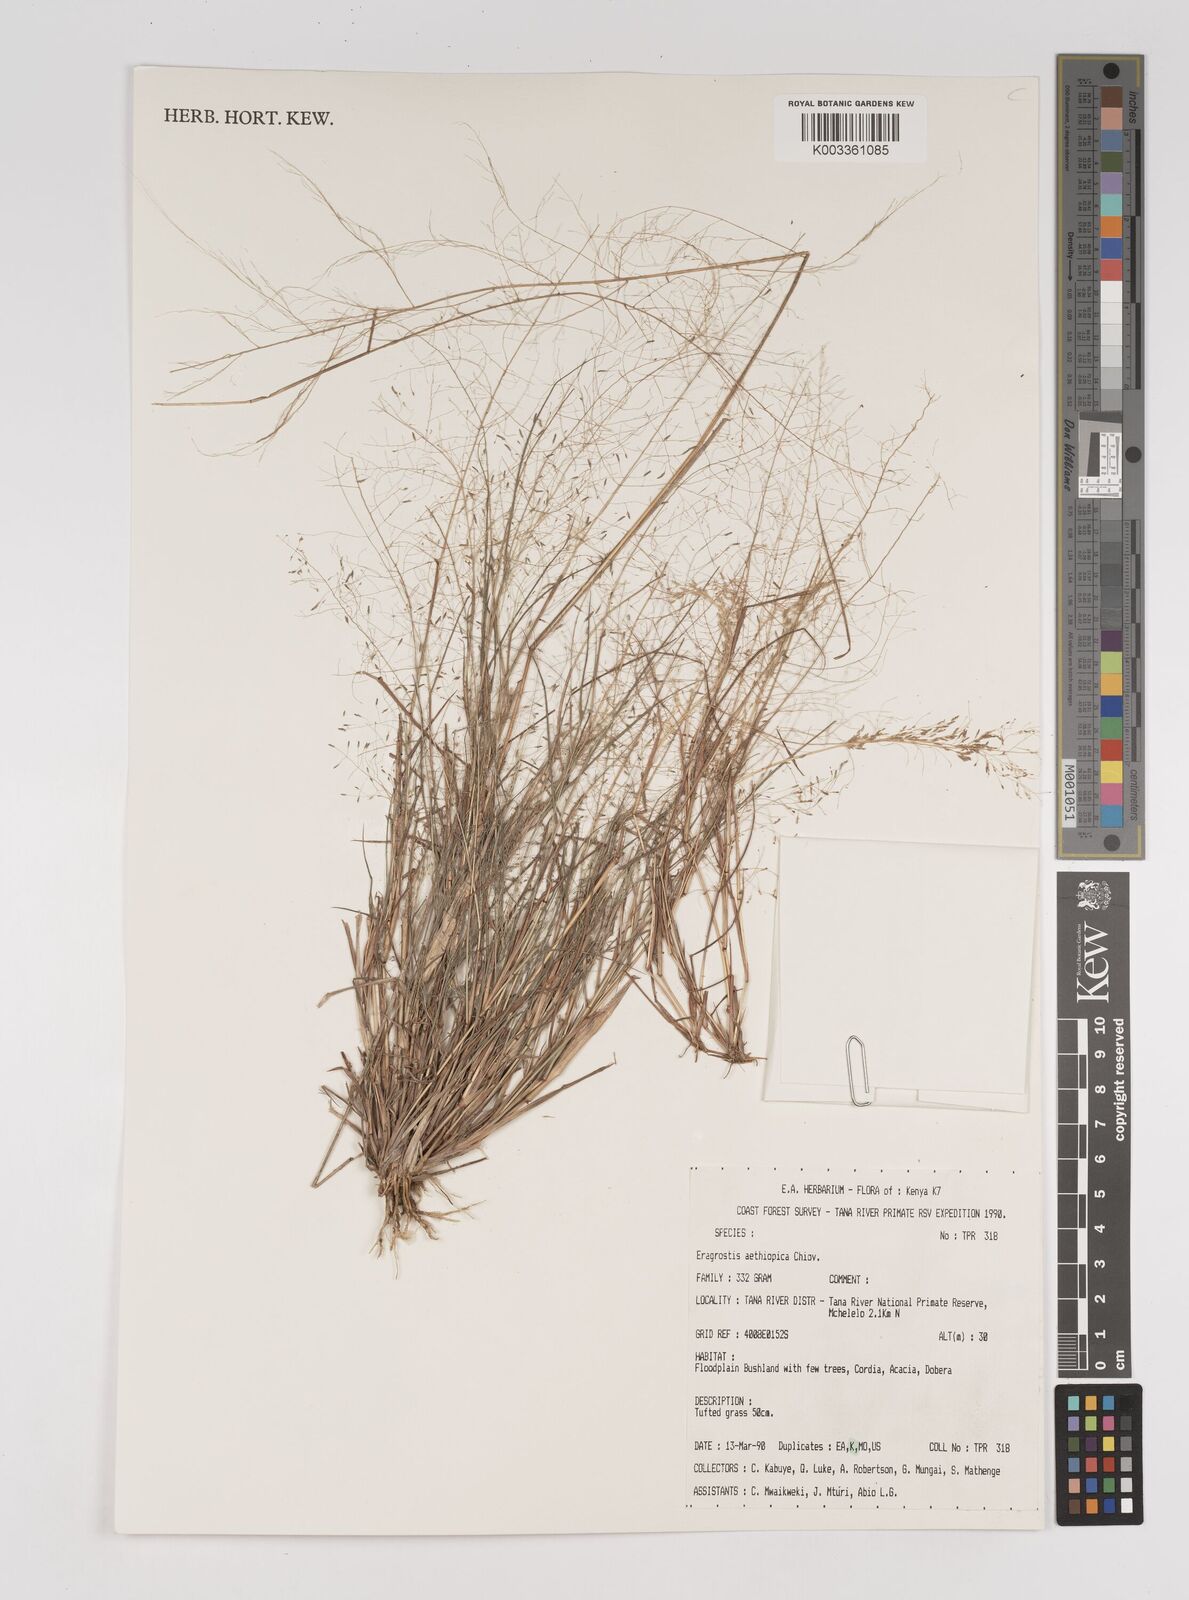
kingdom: Plantae
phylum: Tracheophyta
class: Liliopsida
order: Poales
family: Poaceae
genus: Eragrostis
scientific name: Eragrostis aethiopica
